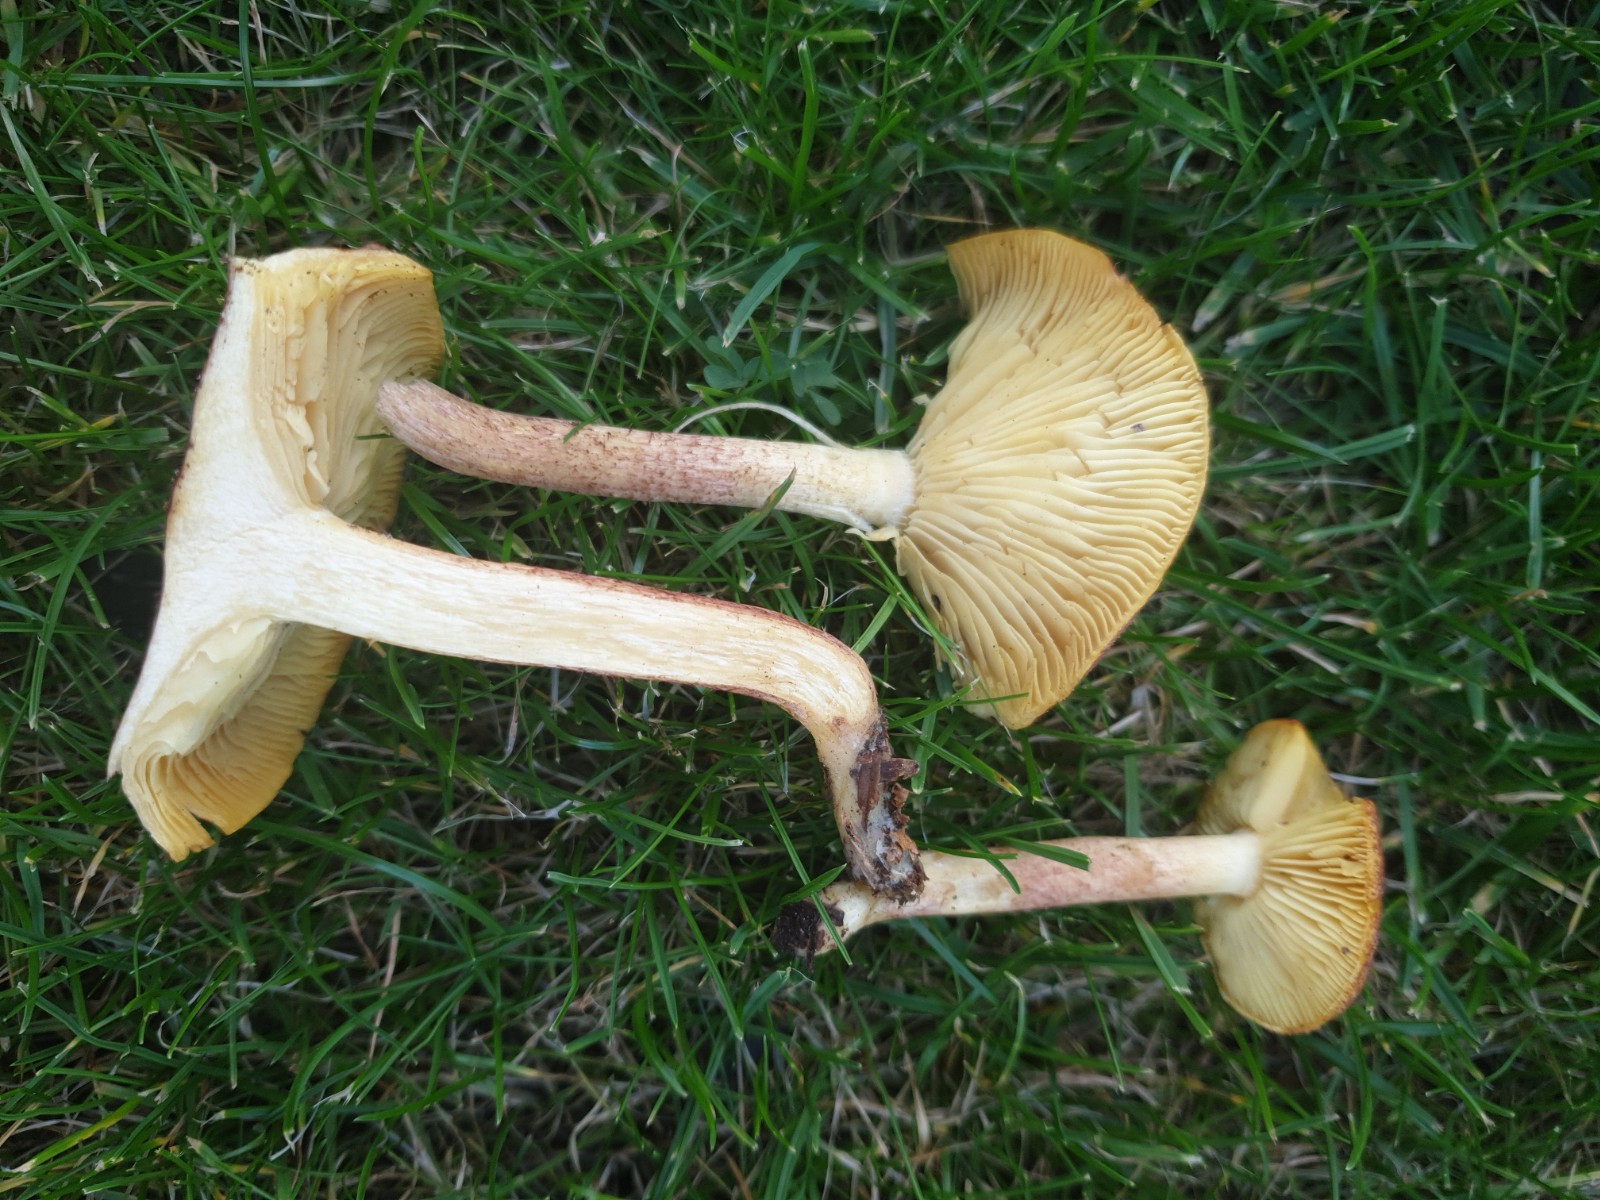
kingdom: Fungi
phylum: Basidiomycota
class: Agaricomycetes
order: Agaricales
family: Tricholomataceae
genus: Tricholomopsis
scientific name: Tricholomopsis rutilans
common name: purpur-væbnerhat
